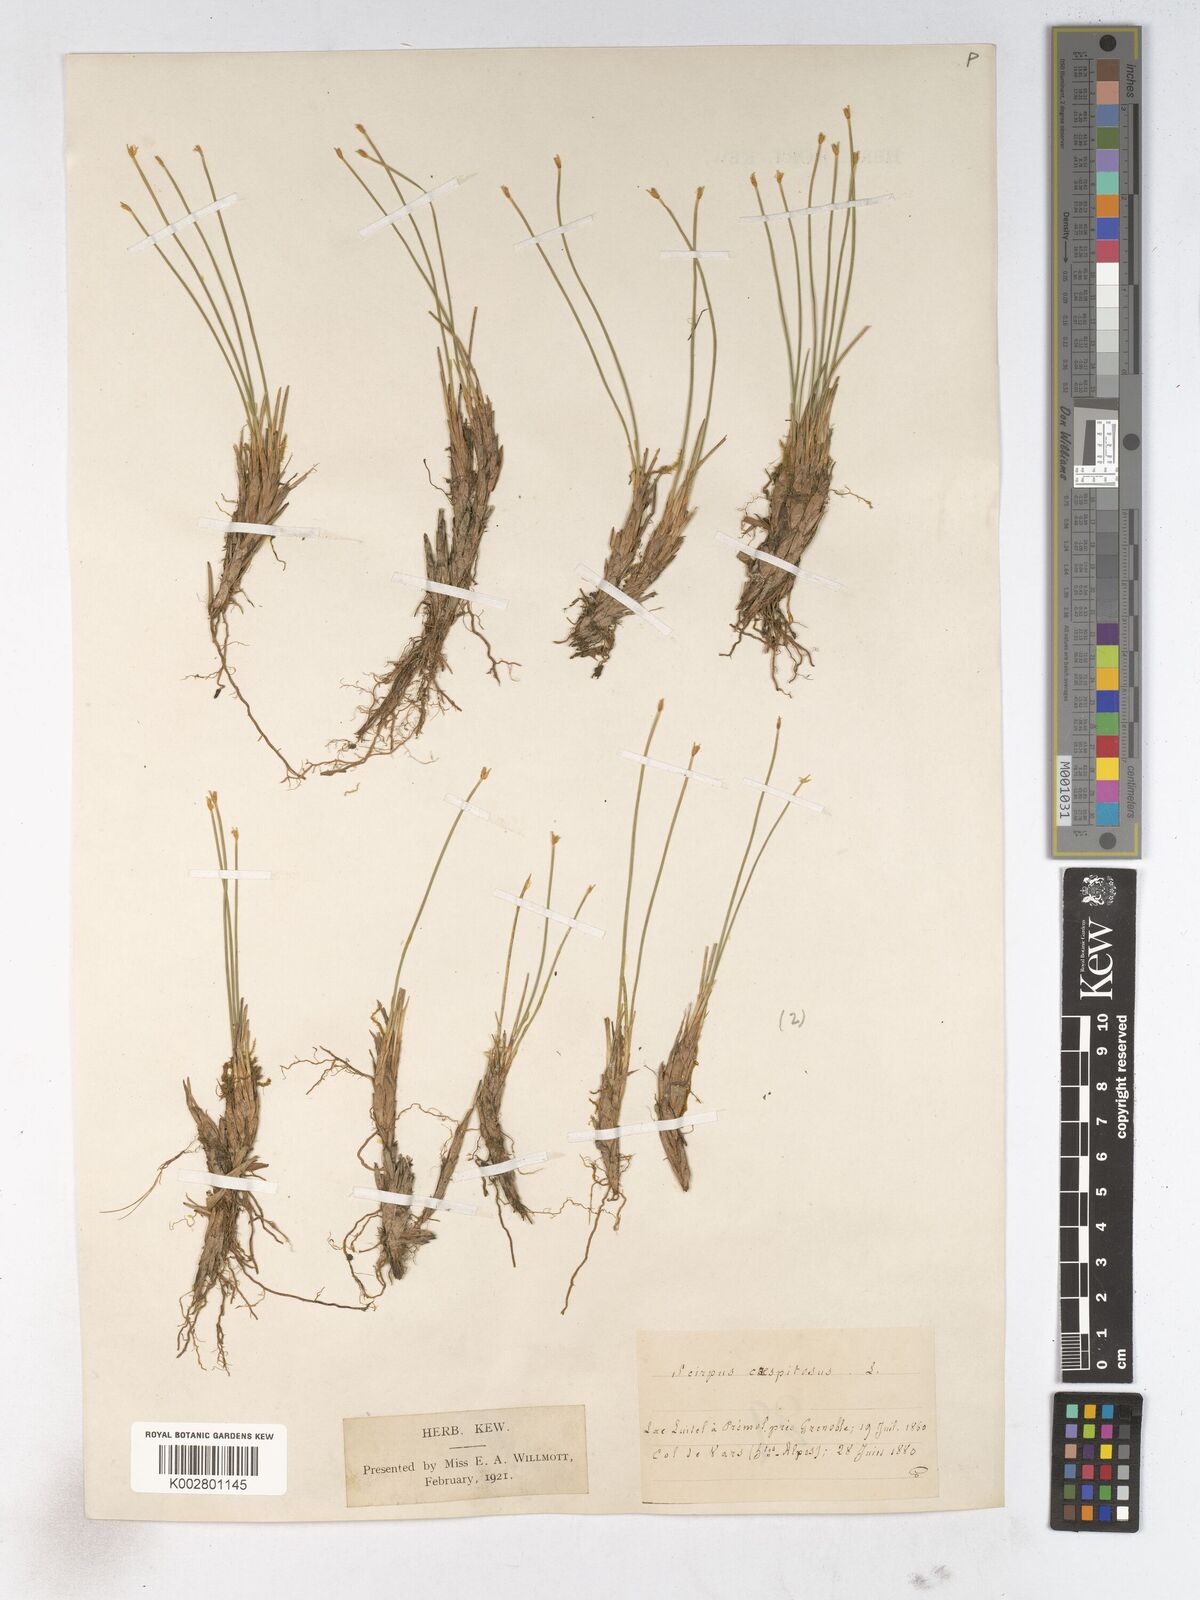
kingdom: Plantae
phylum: Tracheophyta
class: Liliopsida
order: Poales
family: Cyperaceae
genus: Trichophorum
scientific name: Trichophorum cespitosum
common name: Cespitose bulrush
